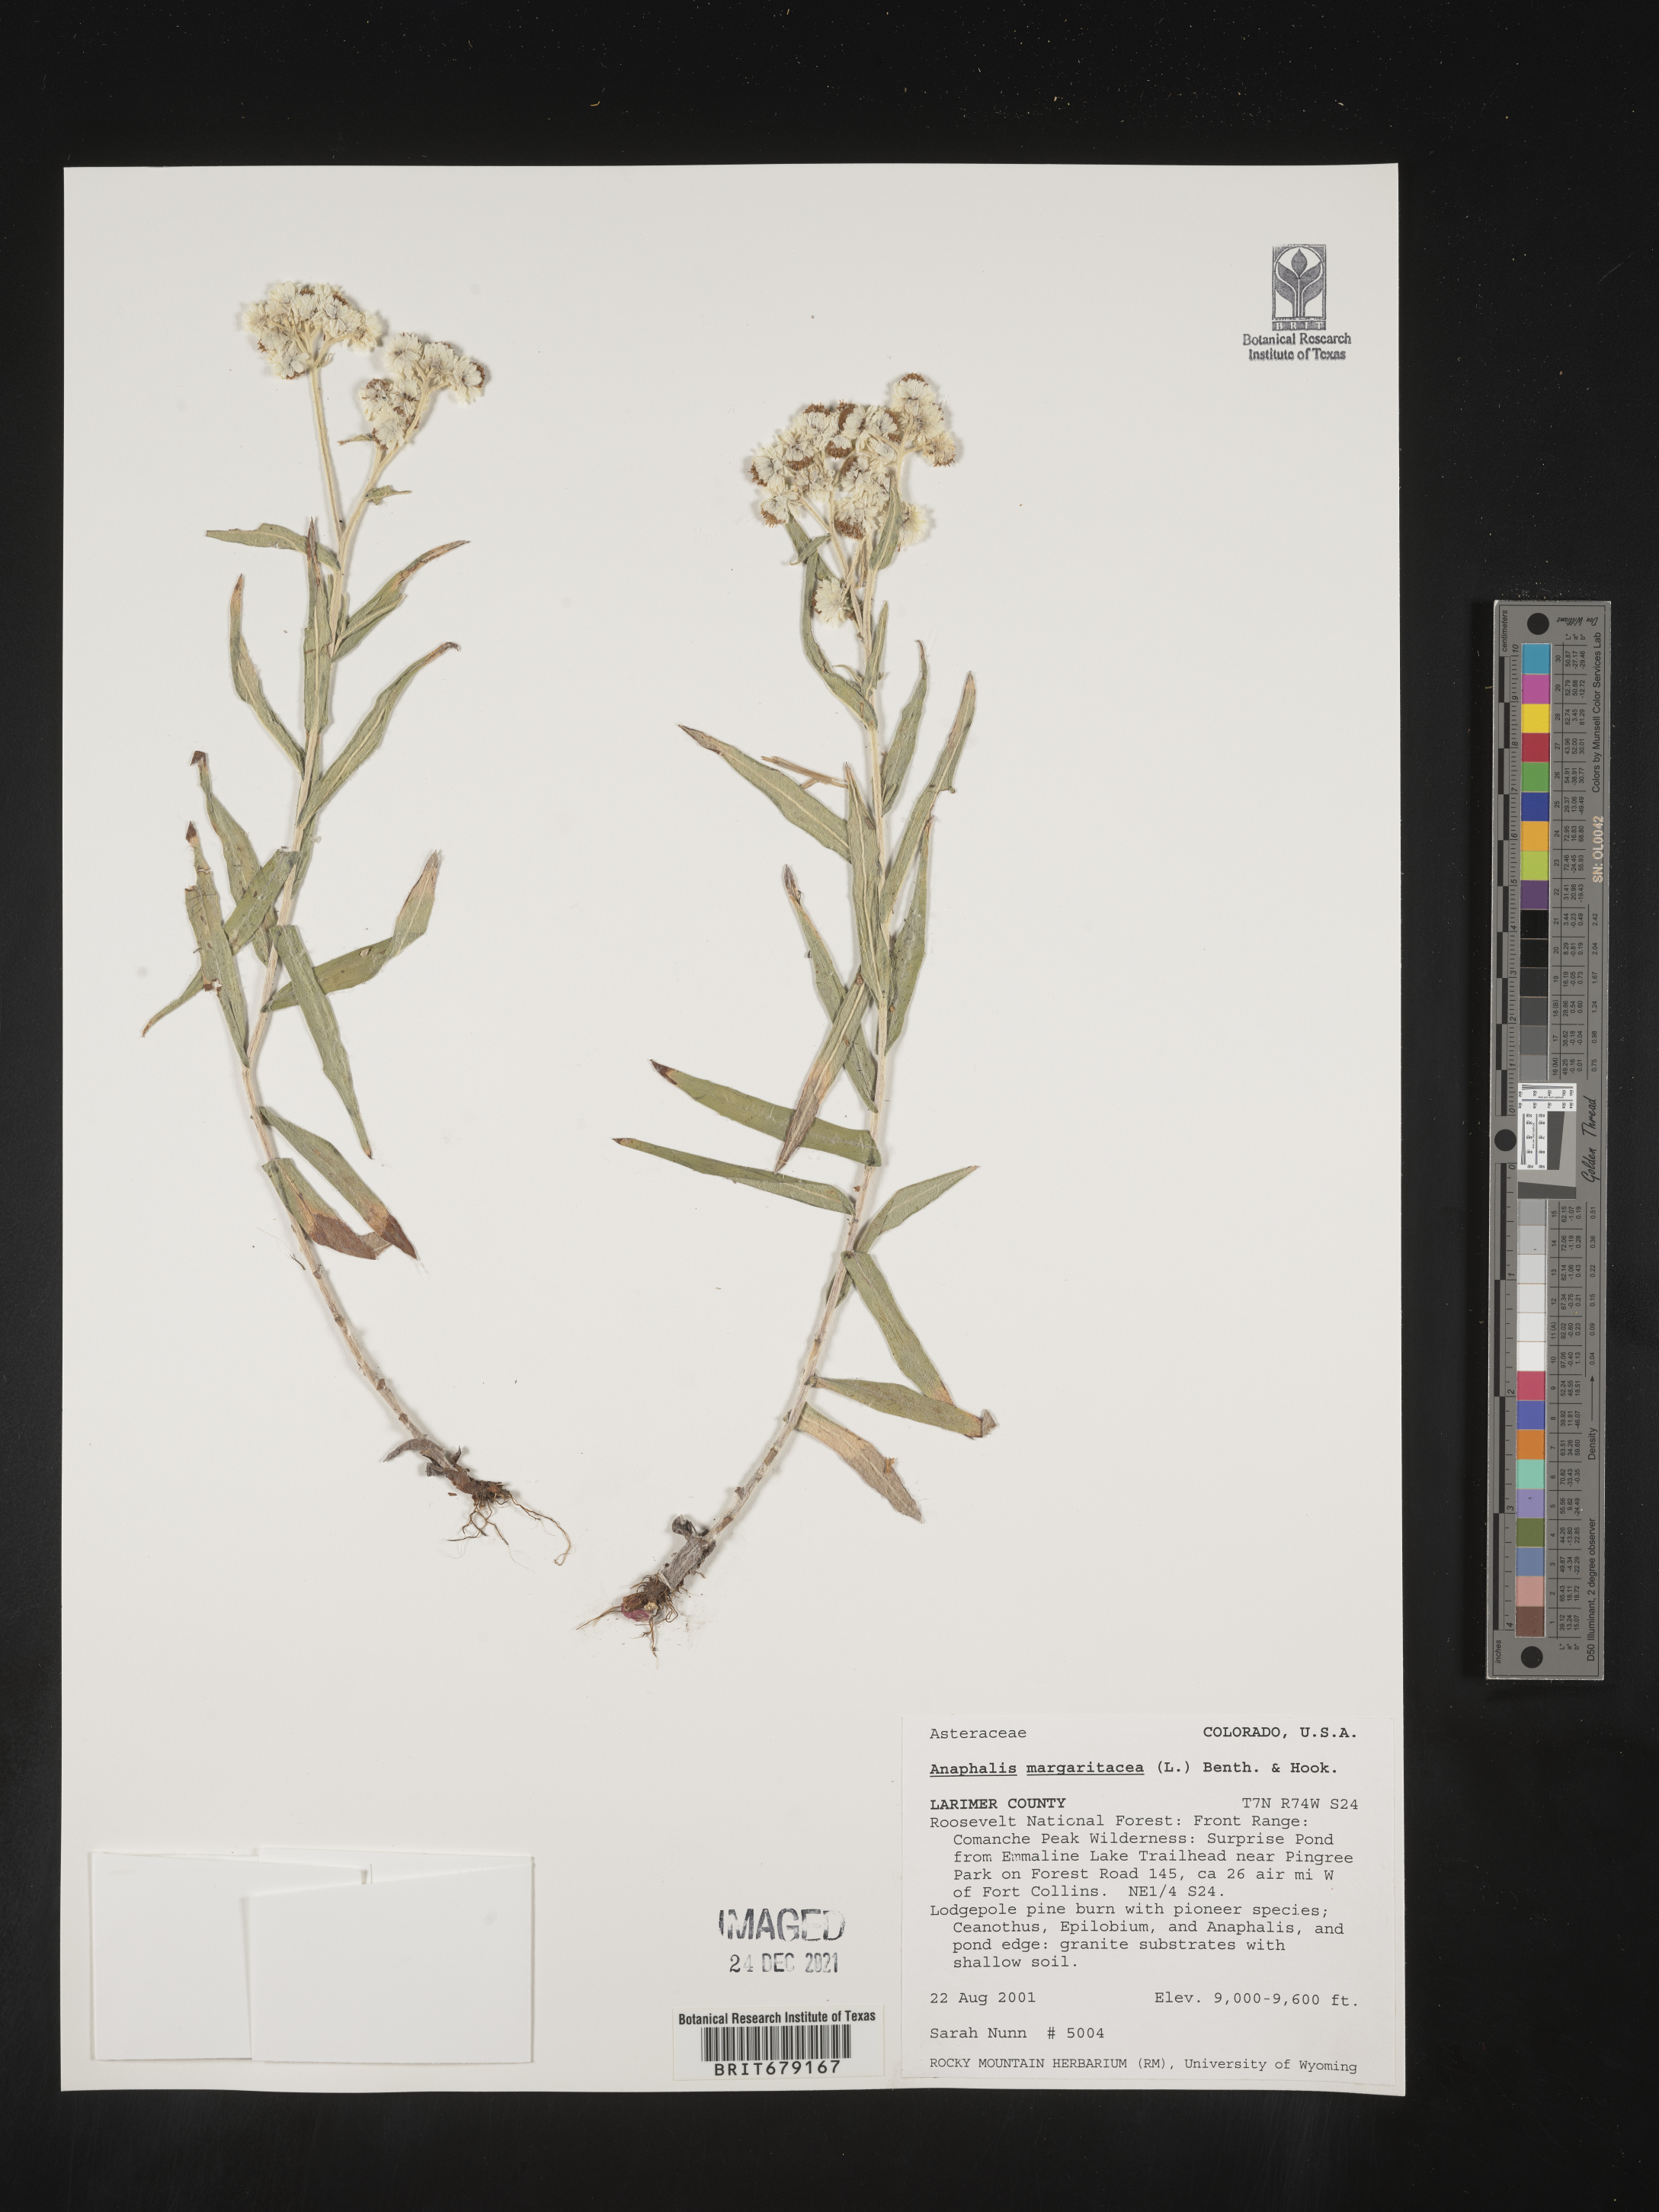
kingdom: Plantae
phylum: Tracheophyta
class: Magnoliopsida
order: Asterales
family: Asteraceae
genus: Anaphalis
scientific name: Anaphalis margaritacea
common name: Pearly everlasting
